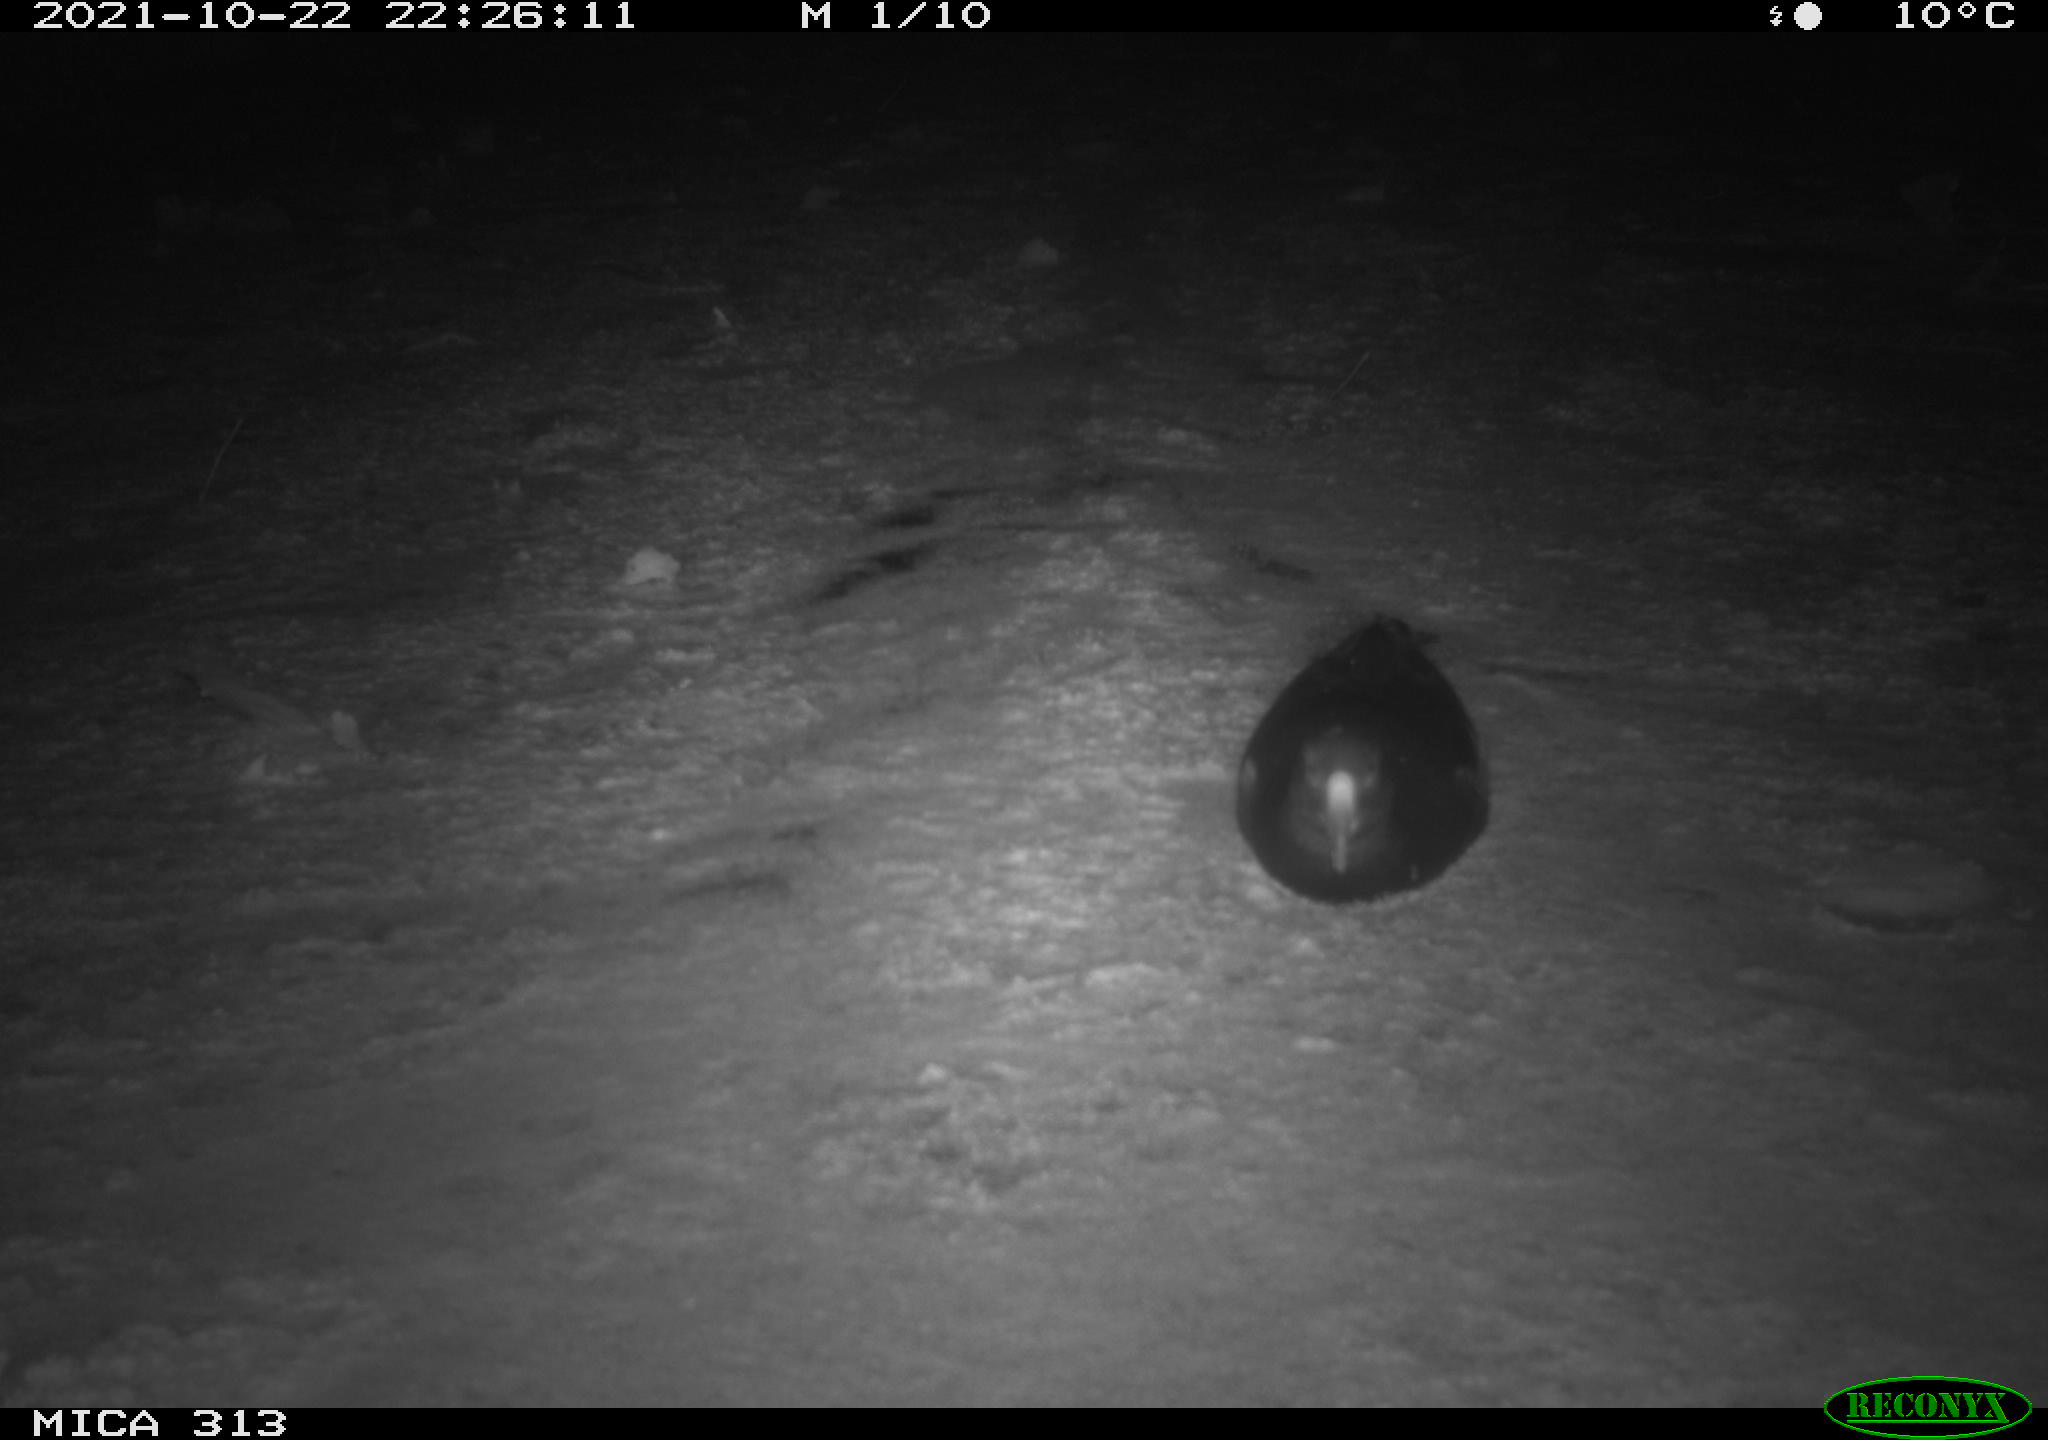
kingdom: Animalia
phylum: Chordata
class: Aves
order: Gruiformes
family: Rallidae
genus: Gallinula
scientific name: Gallinula chloropus
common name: Common moorhen
